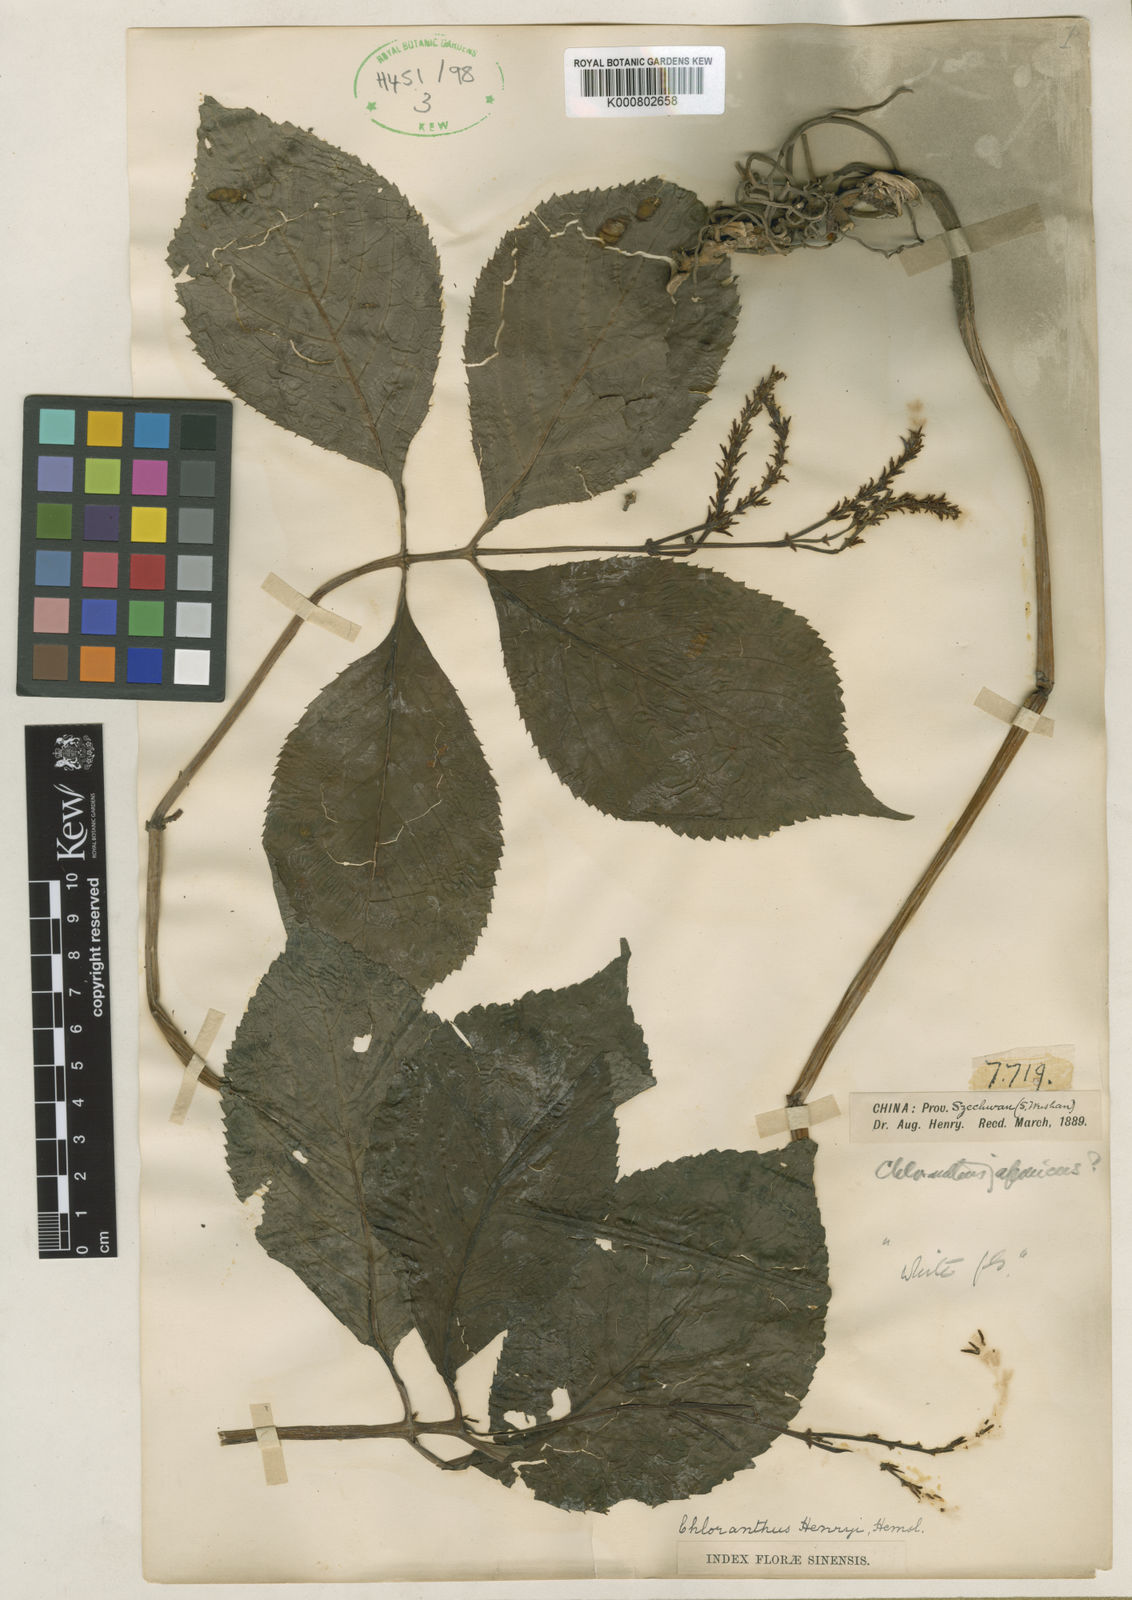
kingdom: Plantae
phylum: Tracheophyta
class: Magnoliopsida
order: Chloranthales
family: Chloranthaceae
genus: Chloranthus
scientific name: Chloranthus henryi
